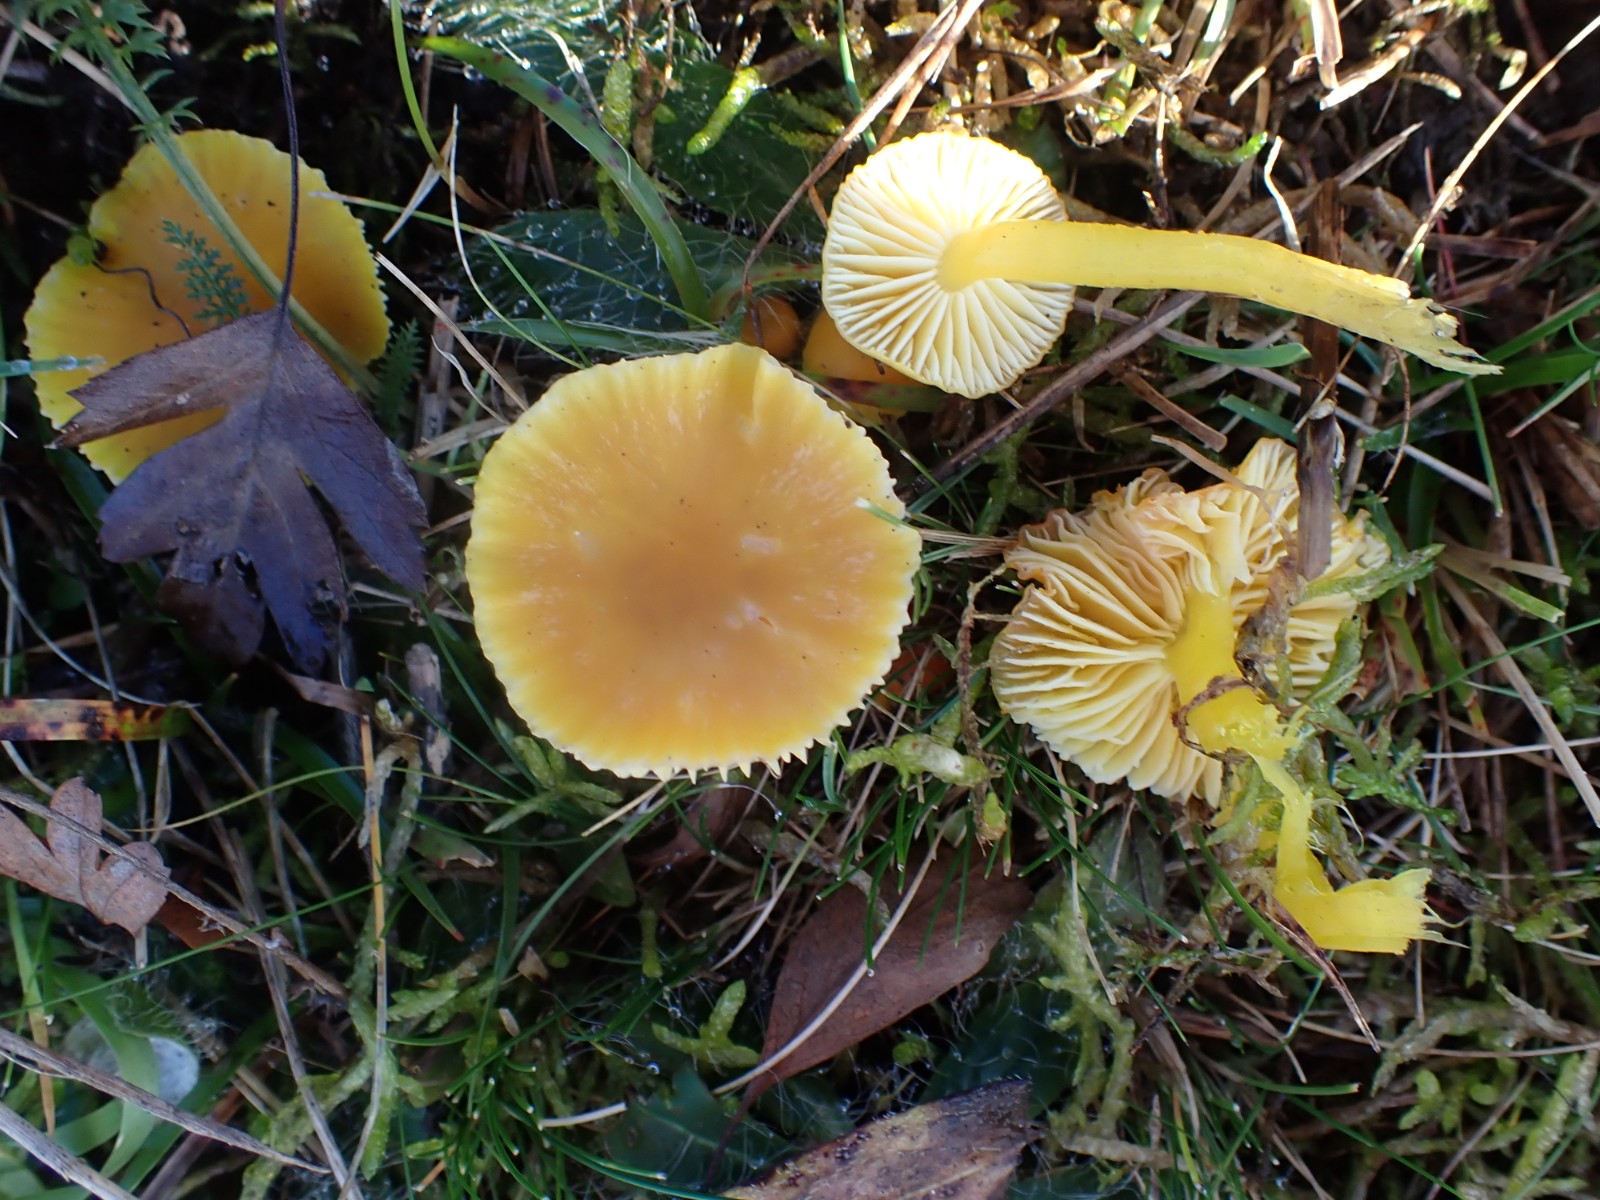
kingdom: Fungi
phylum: Basidiomycota
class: Agaricomycetes
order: Agaricales
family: Hygrophoraceae
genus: Hygrocybe
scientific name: Hygrocybe ceracea
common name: voksgul vokshat
